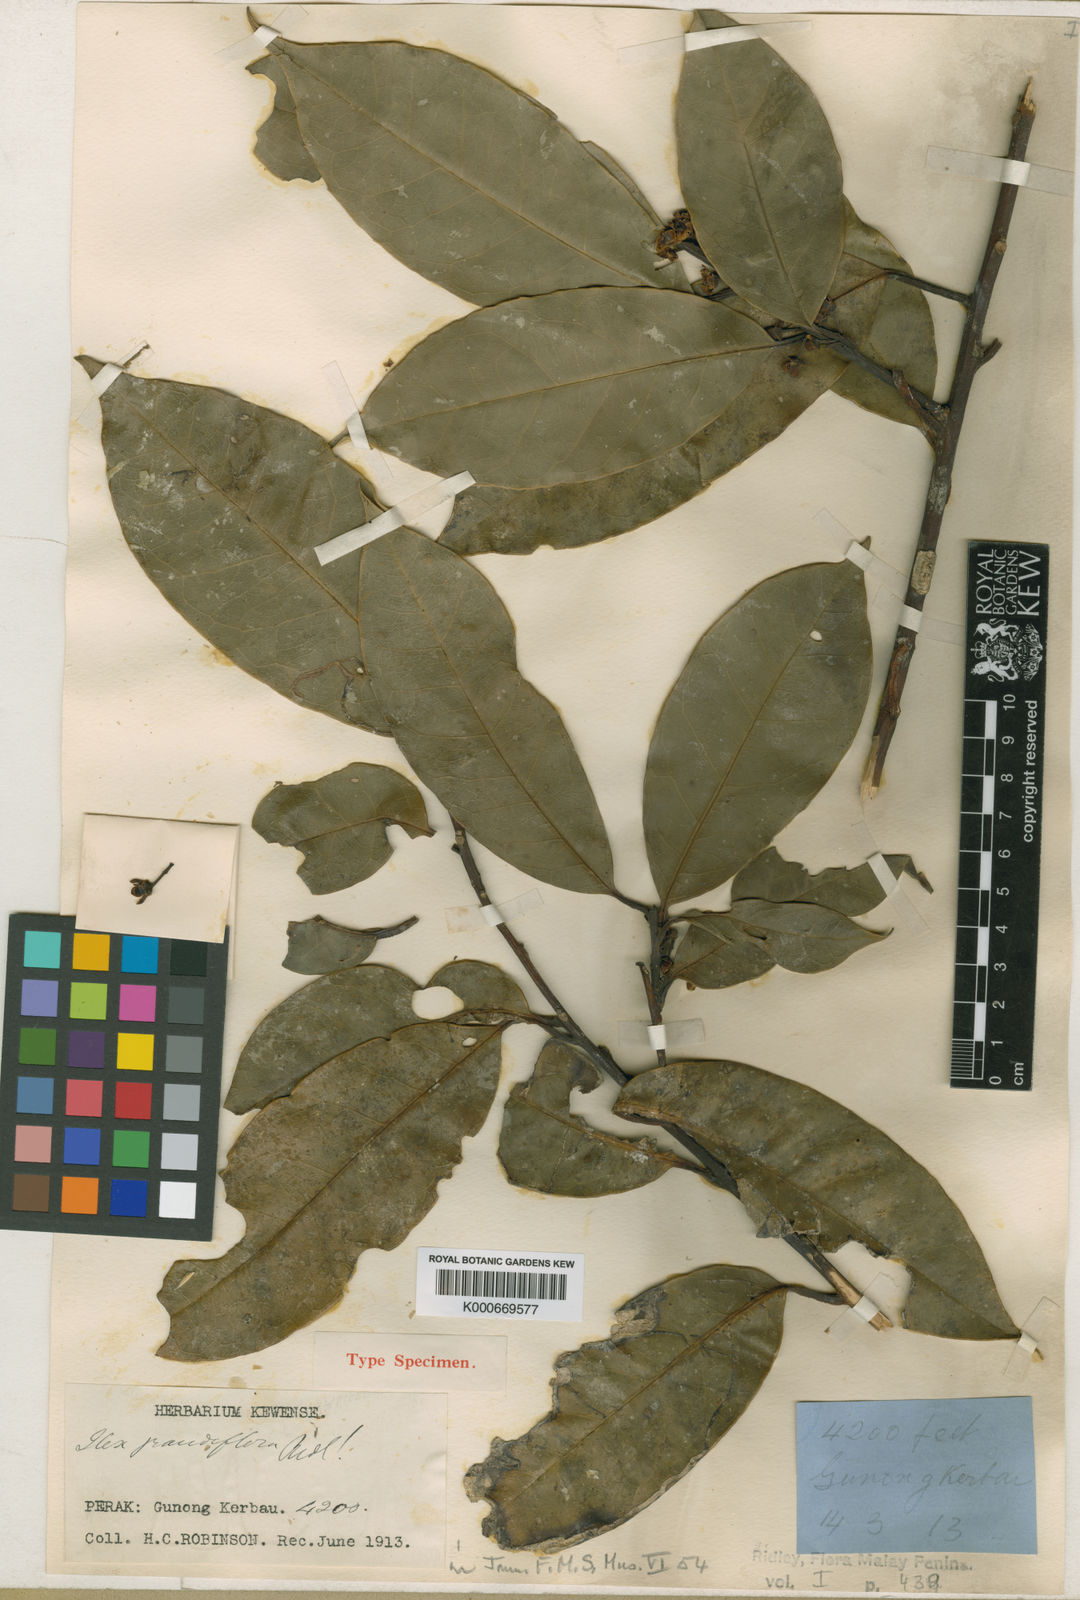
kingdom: Plantae
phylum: Tracheophyta
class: Magnoliopsida
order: Aquifoliales
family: Aquifoliaceae
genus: Ilex
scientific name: Ilex grandiflora
